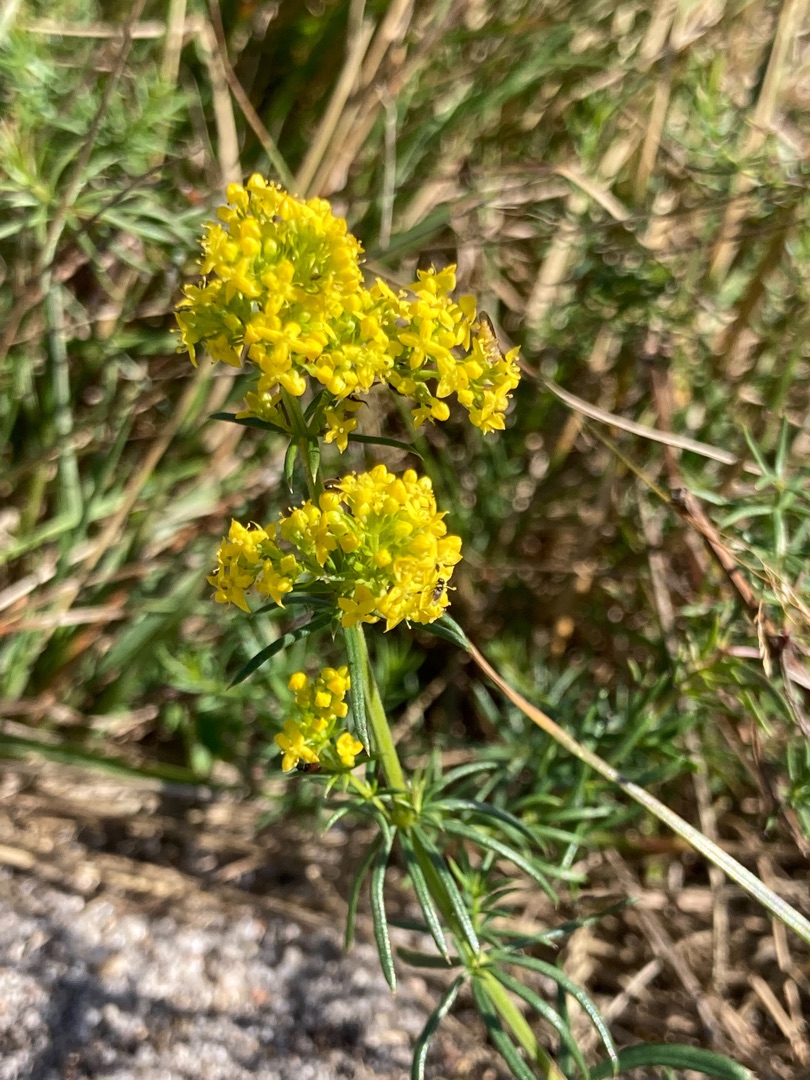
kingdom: Plantae
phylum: Tracheophyta
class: Magnoliopsida
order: Gentianales
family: Rubiaceae
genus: Galium
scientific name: Galium verum
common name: Gul snerre
